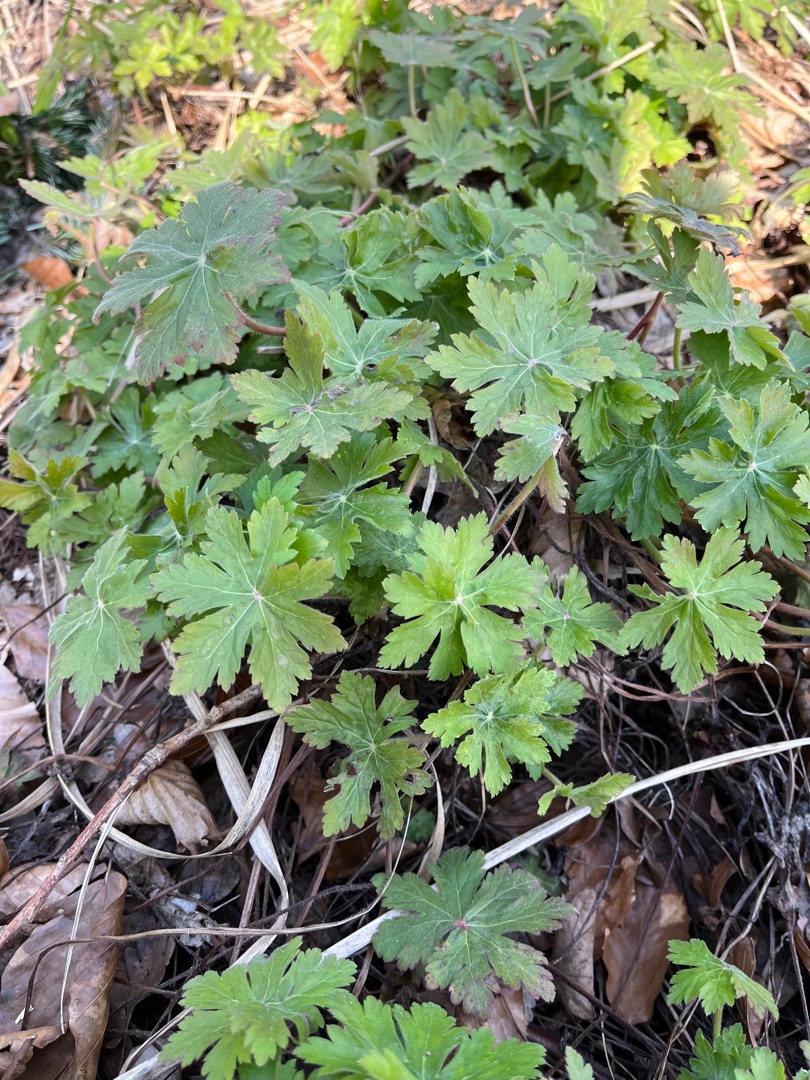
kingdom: Plantae
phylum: Tracheophyta
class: Magnoliopsida
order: Geraniales
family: Geraniaceae
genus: Geranium
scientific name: Geranium macrorrhizum
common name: Storrodet storkenæb
